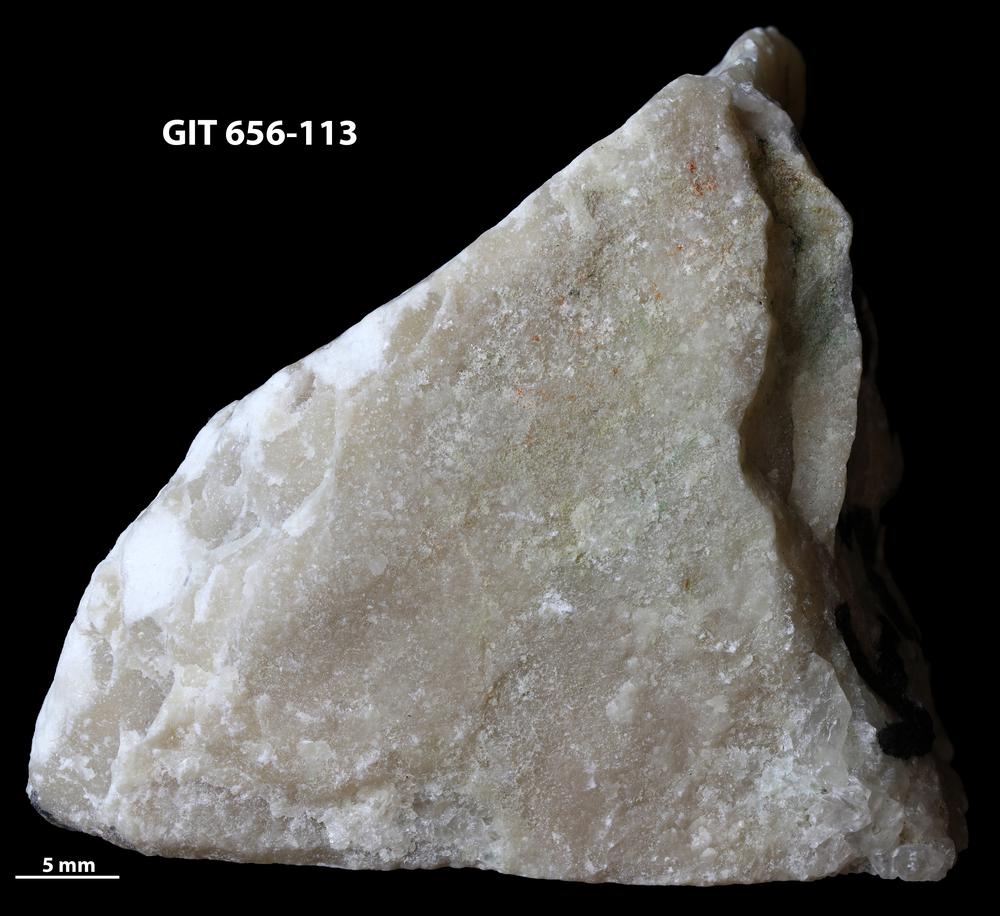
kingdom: Animalia
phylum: Porifera
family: Actinostromatidae
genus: Plectostroma
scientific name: Plectostroma
